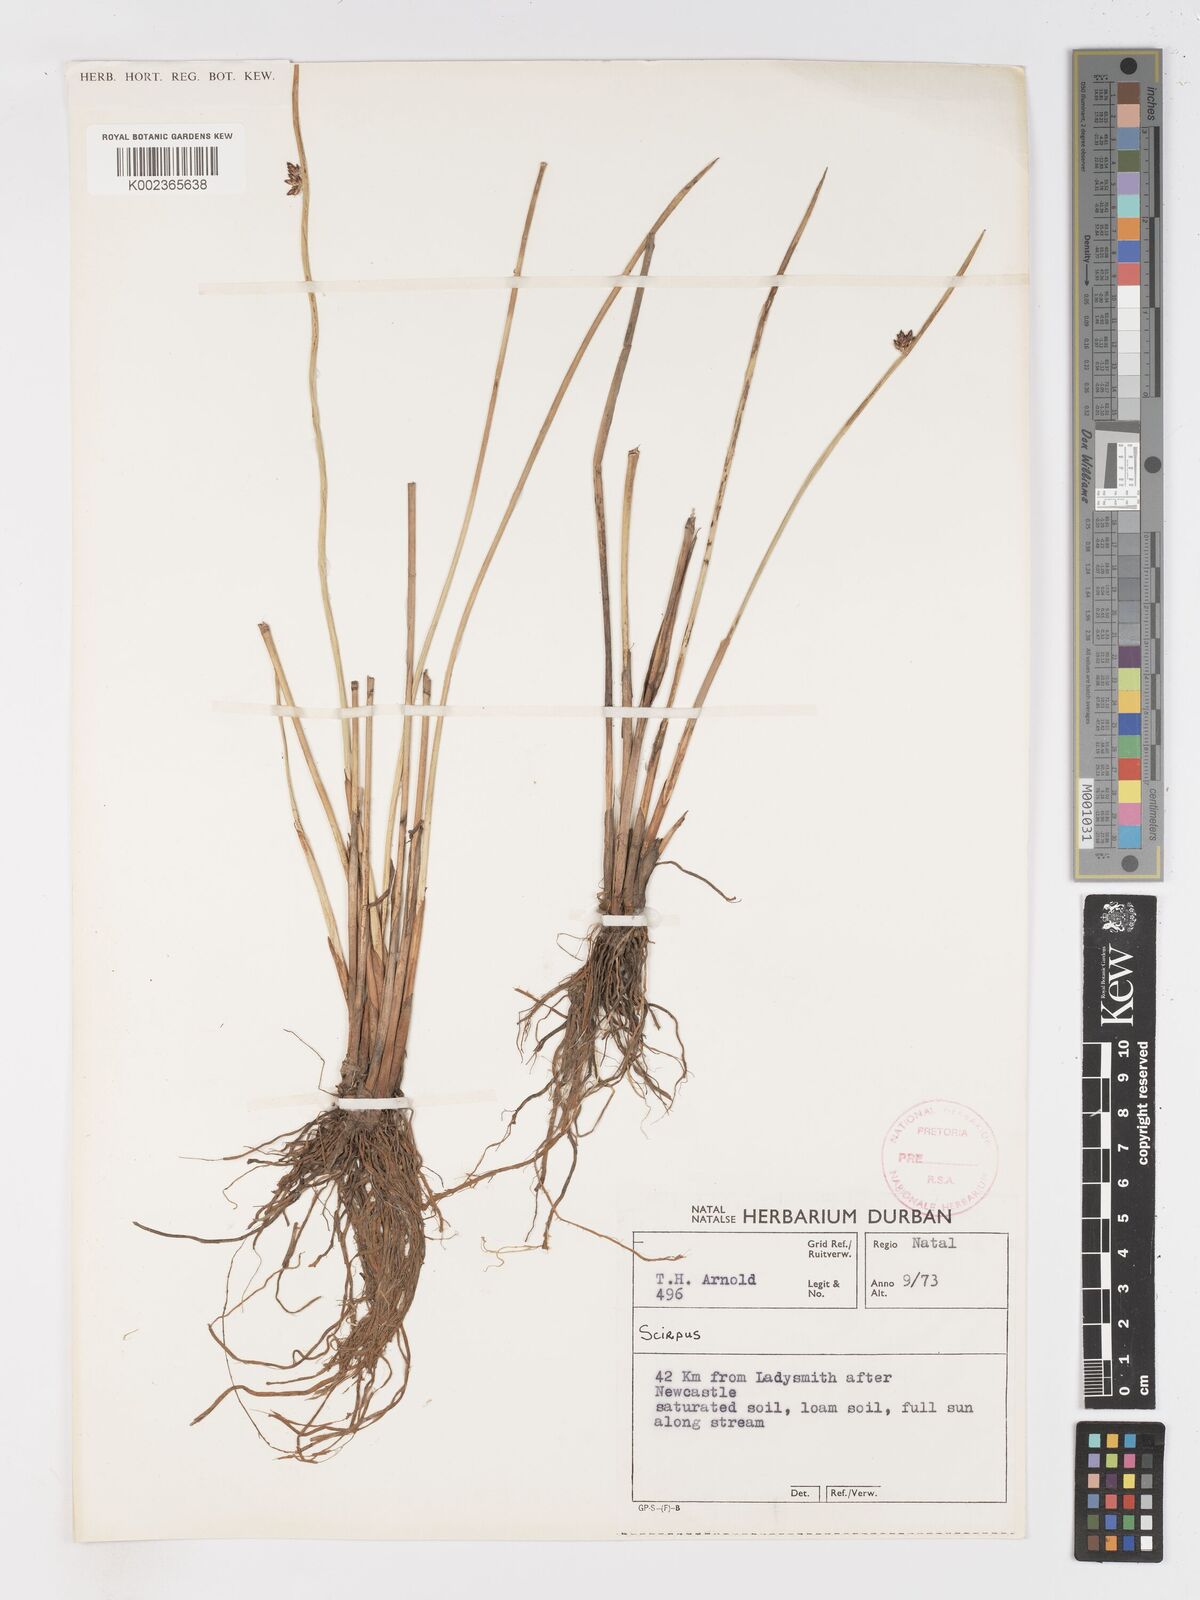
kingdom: Plantae
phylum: Tracheophyta
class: Liliopsida
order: Poales
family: Cyperaceae
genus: Schoenoplectus
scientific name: Schoenoplectus
